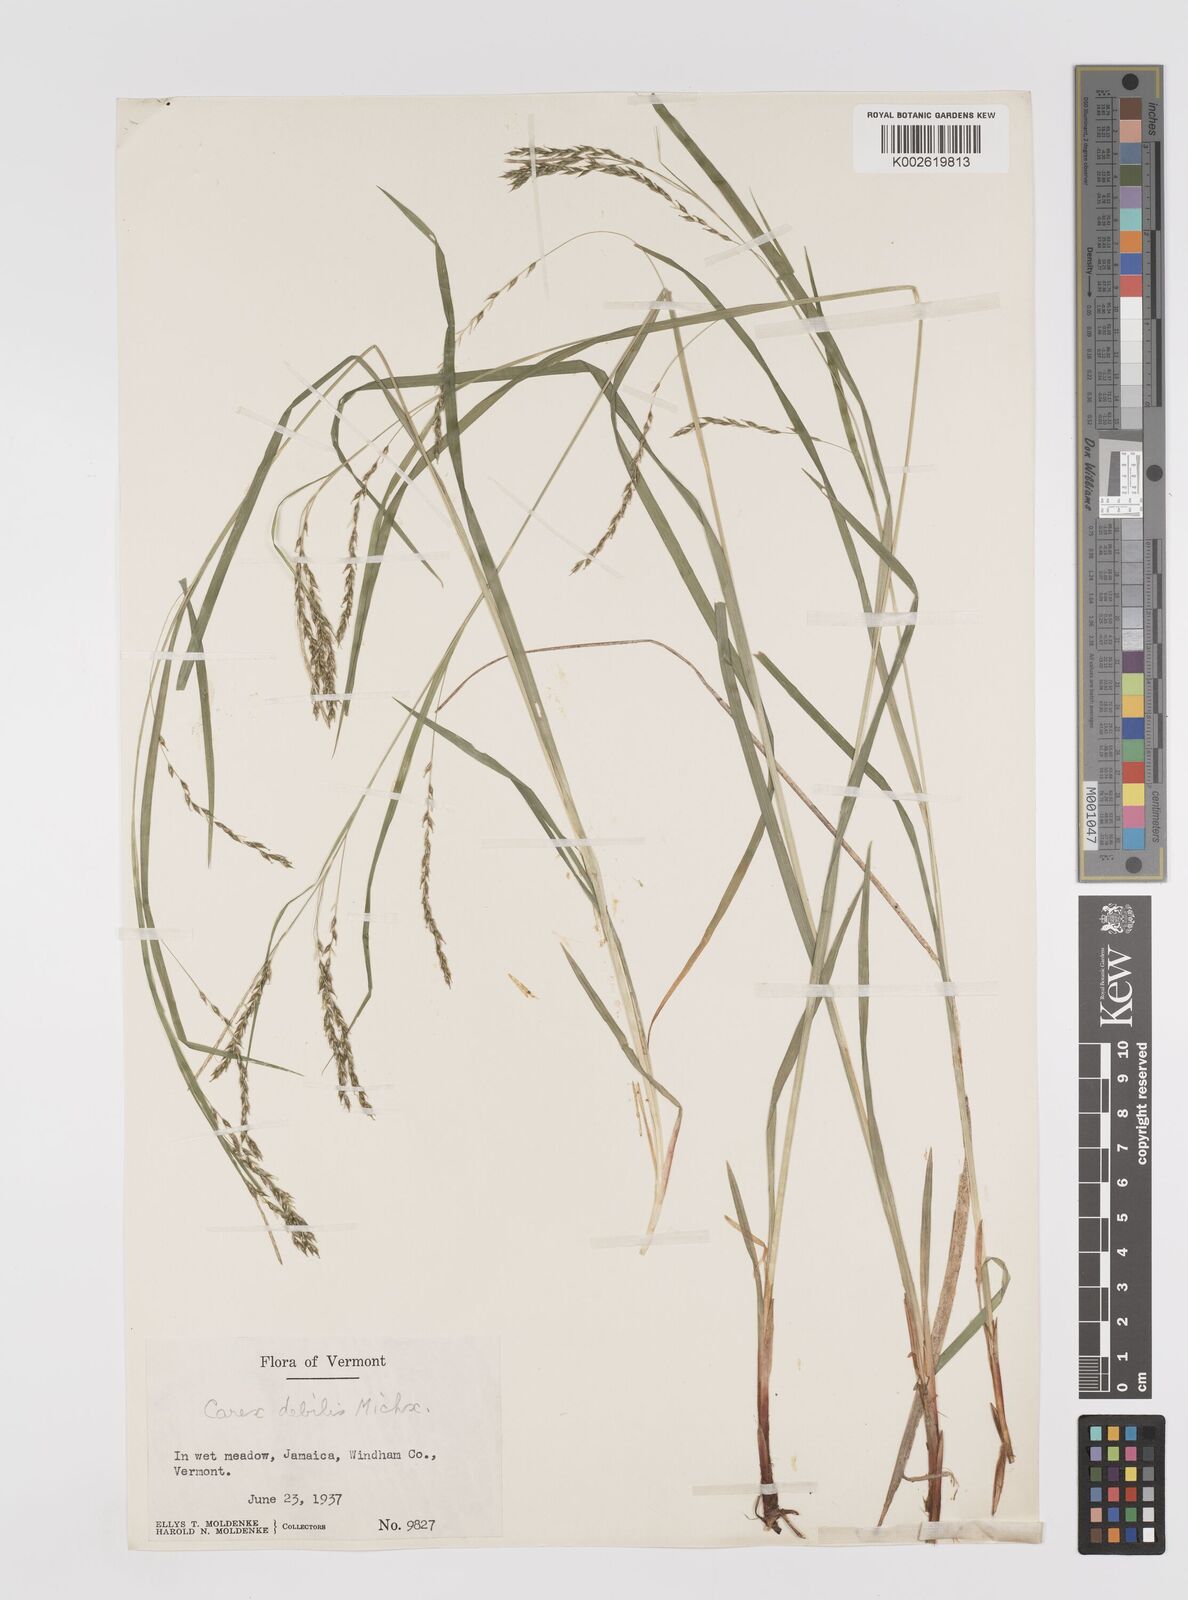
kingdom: Plantae
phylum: Tracheophyta
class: Liliopsida
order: Poales
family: Cyperaceae
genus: Carex
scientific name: Carex debilis
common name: White-edge sedge
